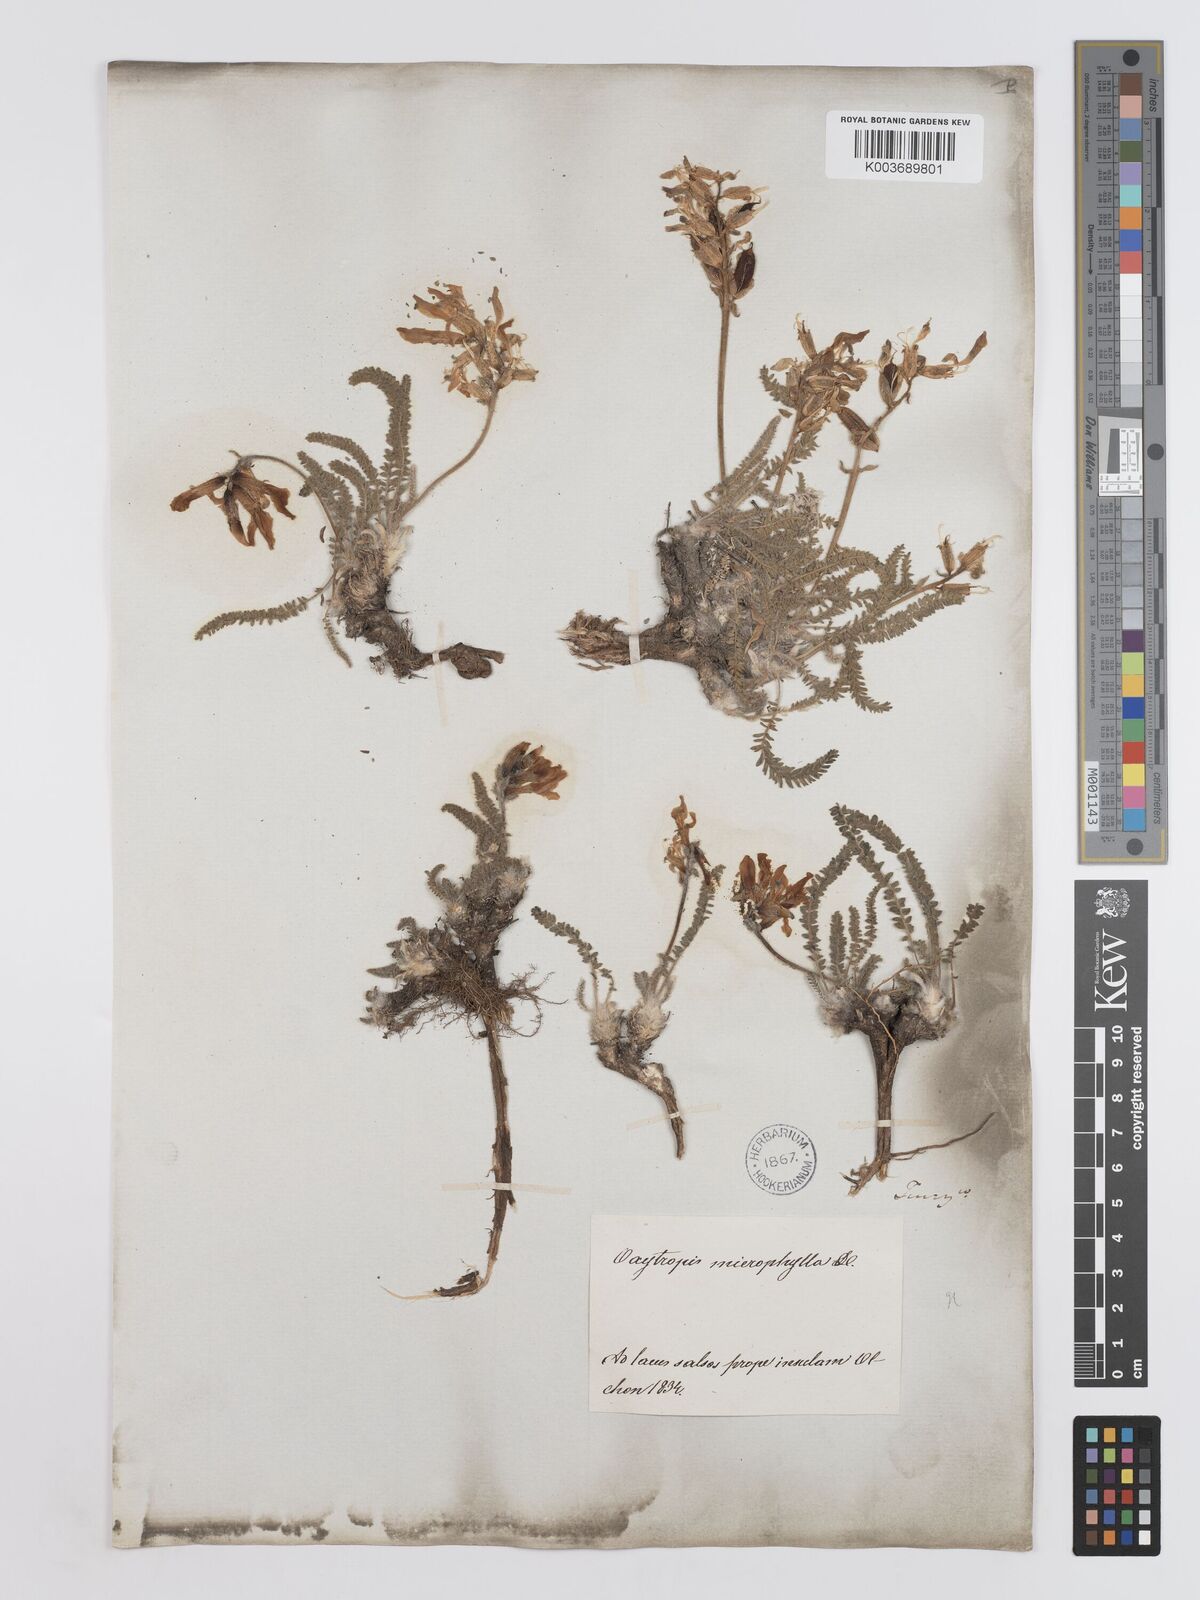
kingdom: Plantae
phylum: Tracheophyta
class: Magnoliopsida
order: Fabales
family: Fabaceae
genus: Oxytropis
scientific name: Oxytropis
